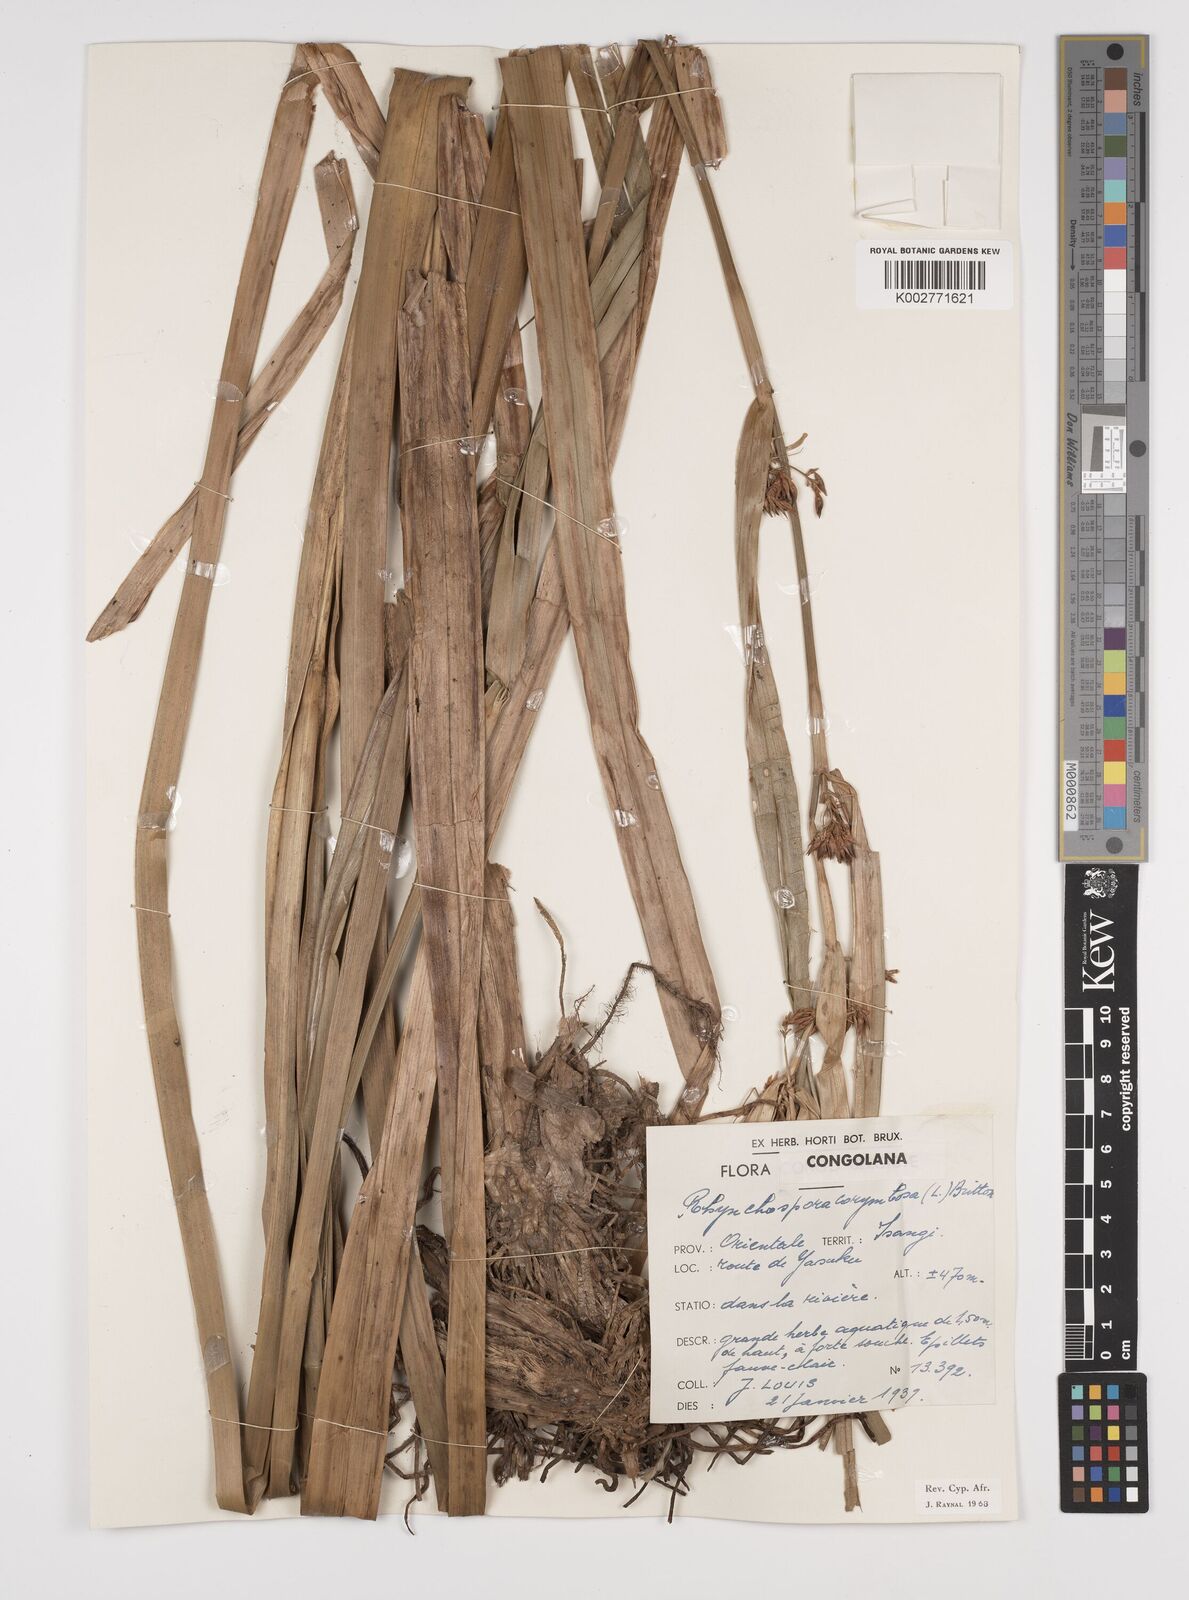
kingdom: Plantae
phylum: Tracheophyta
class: Liliopsida
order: Poales
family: Cyperaceae
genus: Rhynchospora
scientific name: Rhynchospora corymbosa
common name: Golden beak sedge
